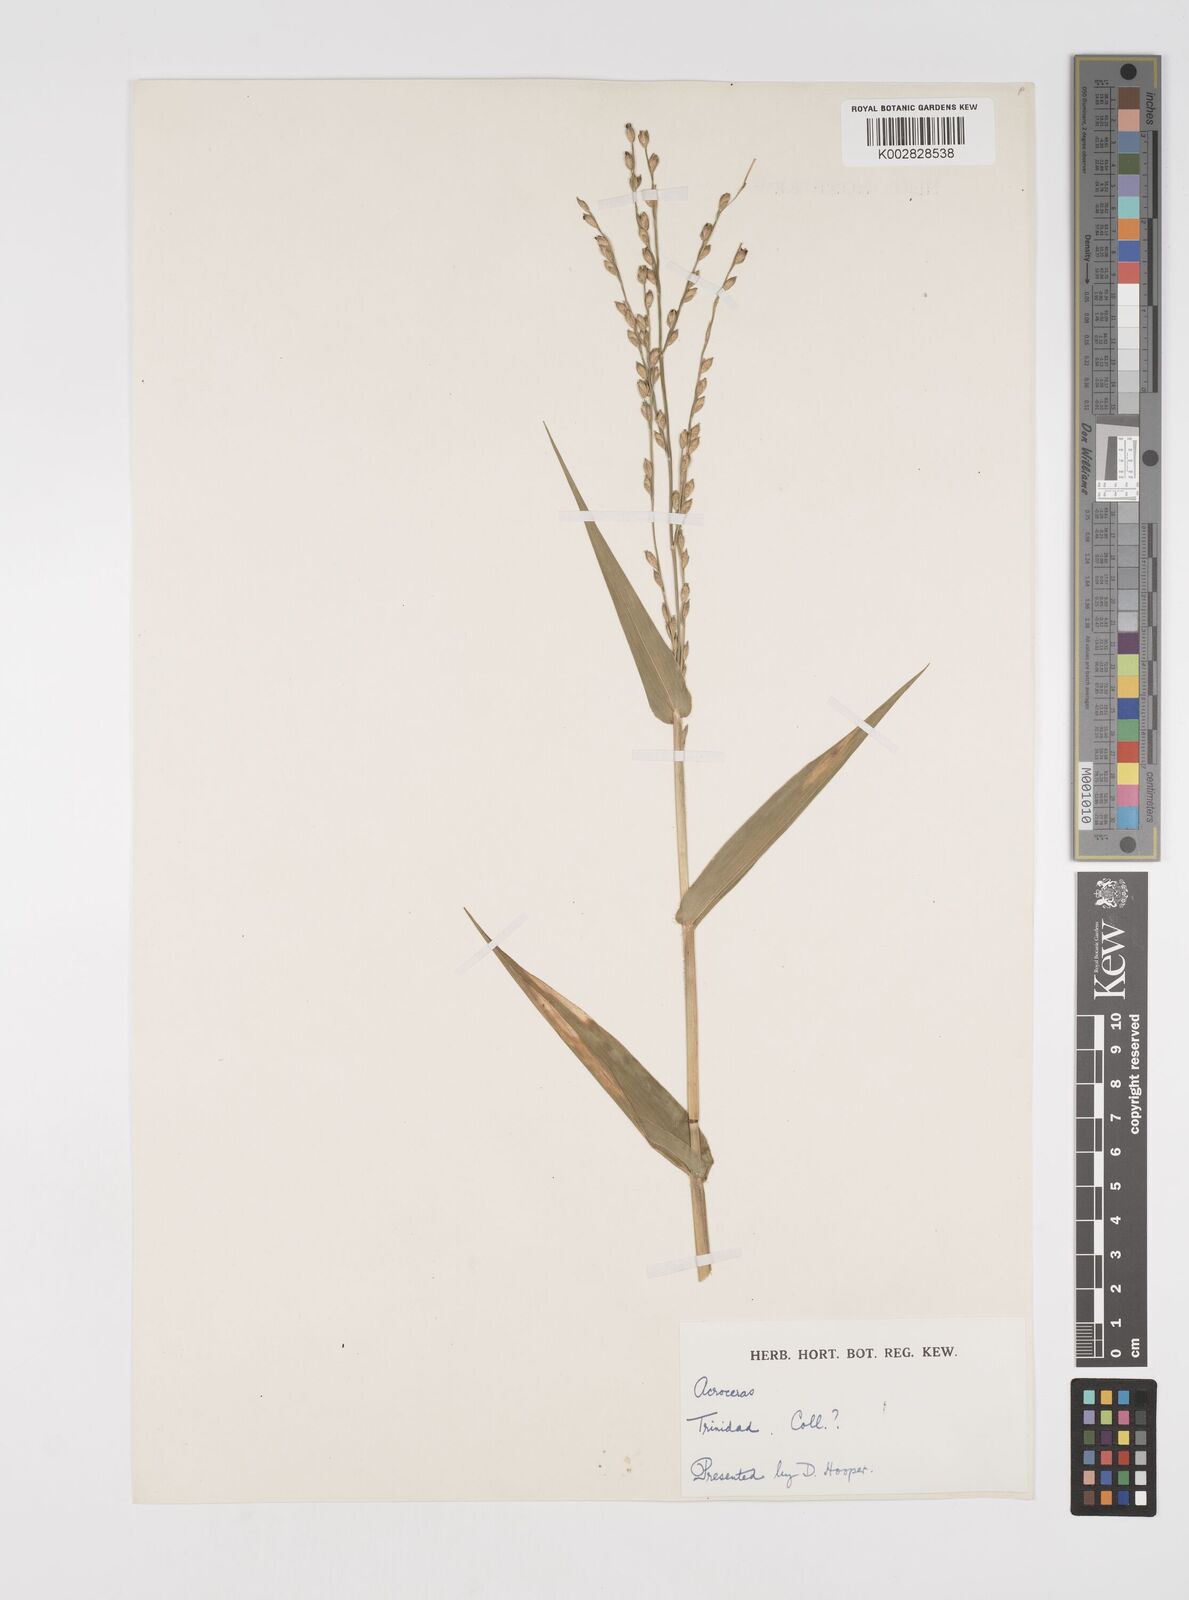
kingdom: Plantae
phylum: Tracheophyta
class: Liliopsida
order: Poales
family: Poaceae
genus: Acroceras
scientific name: Acroceras zizanioides
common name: Oat grass
